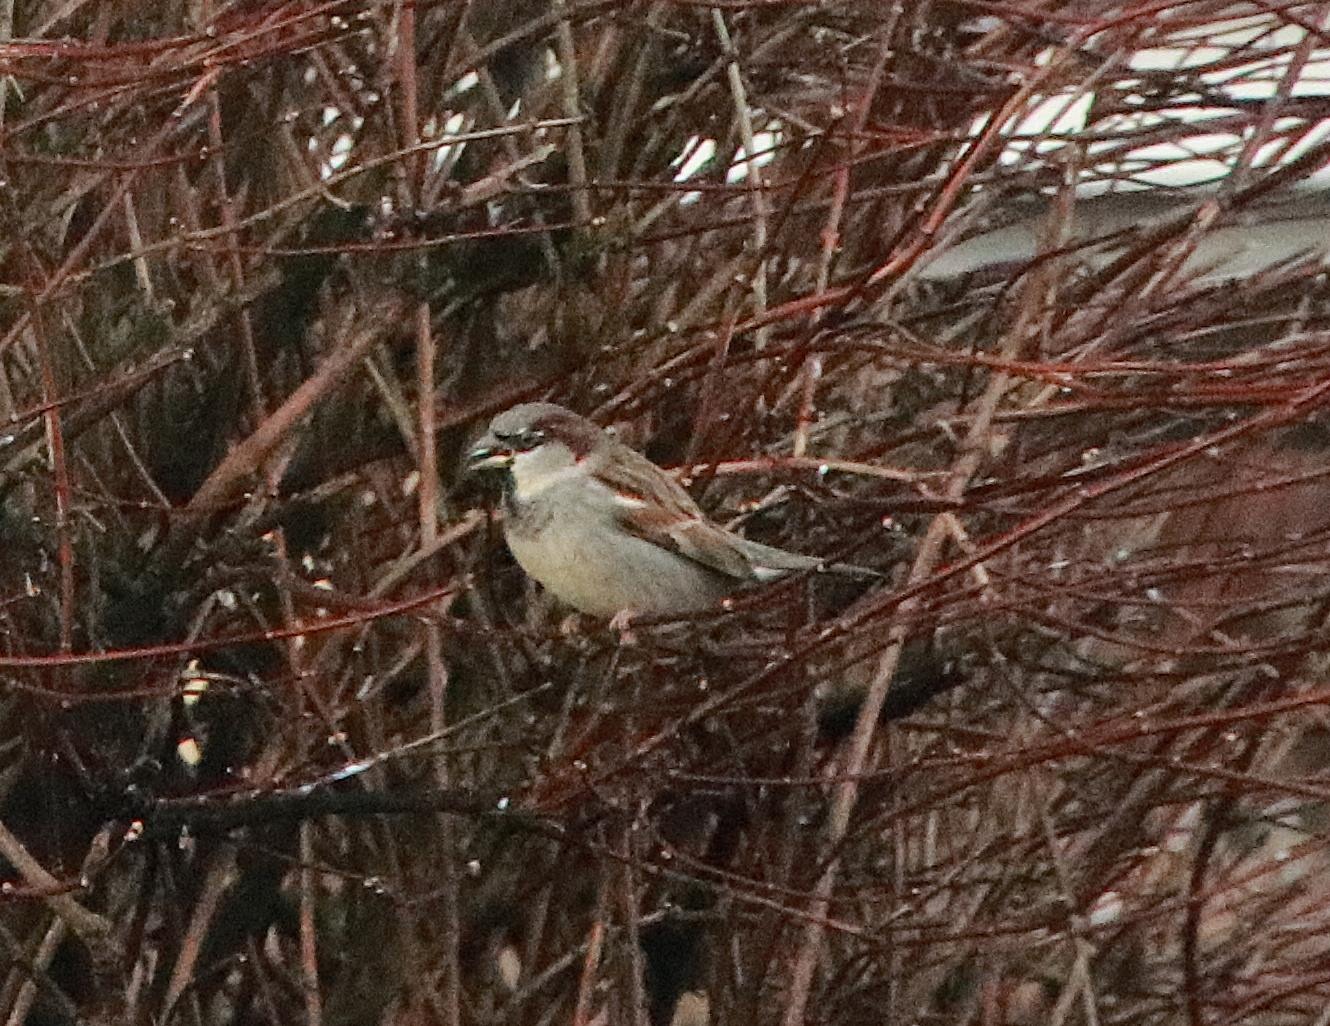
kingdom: Animalia
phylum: Chordata
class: Aves
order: Passeriformes
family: Passeridae
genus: Passer
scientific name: Passer domesticus
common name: Gråspurv
